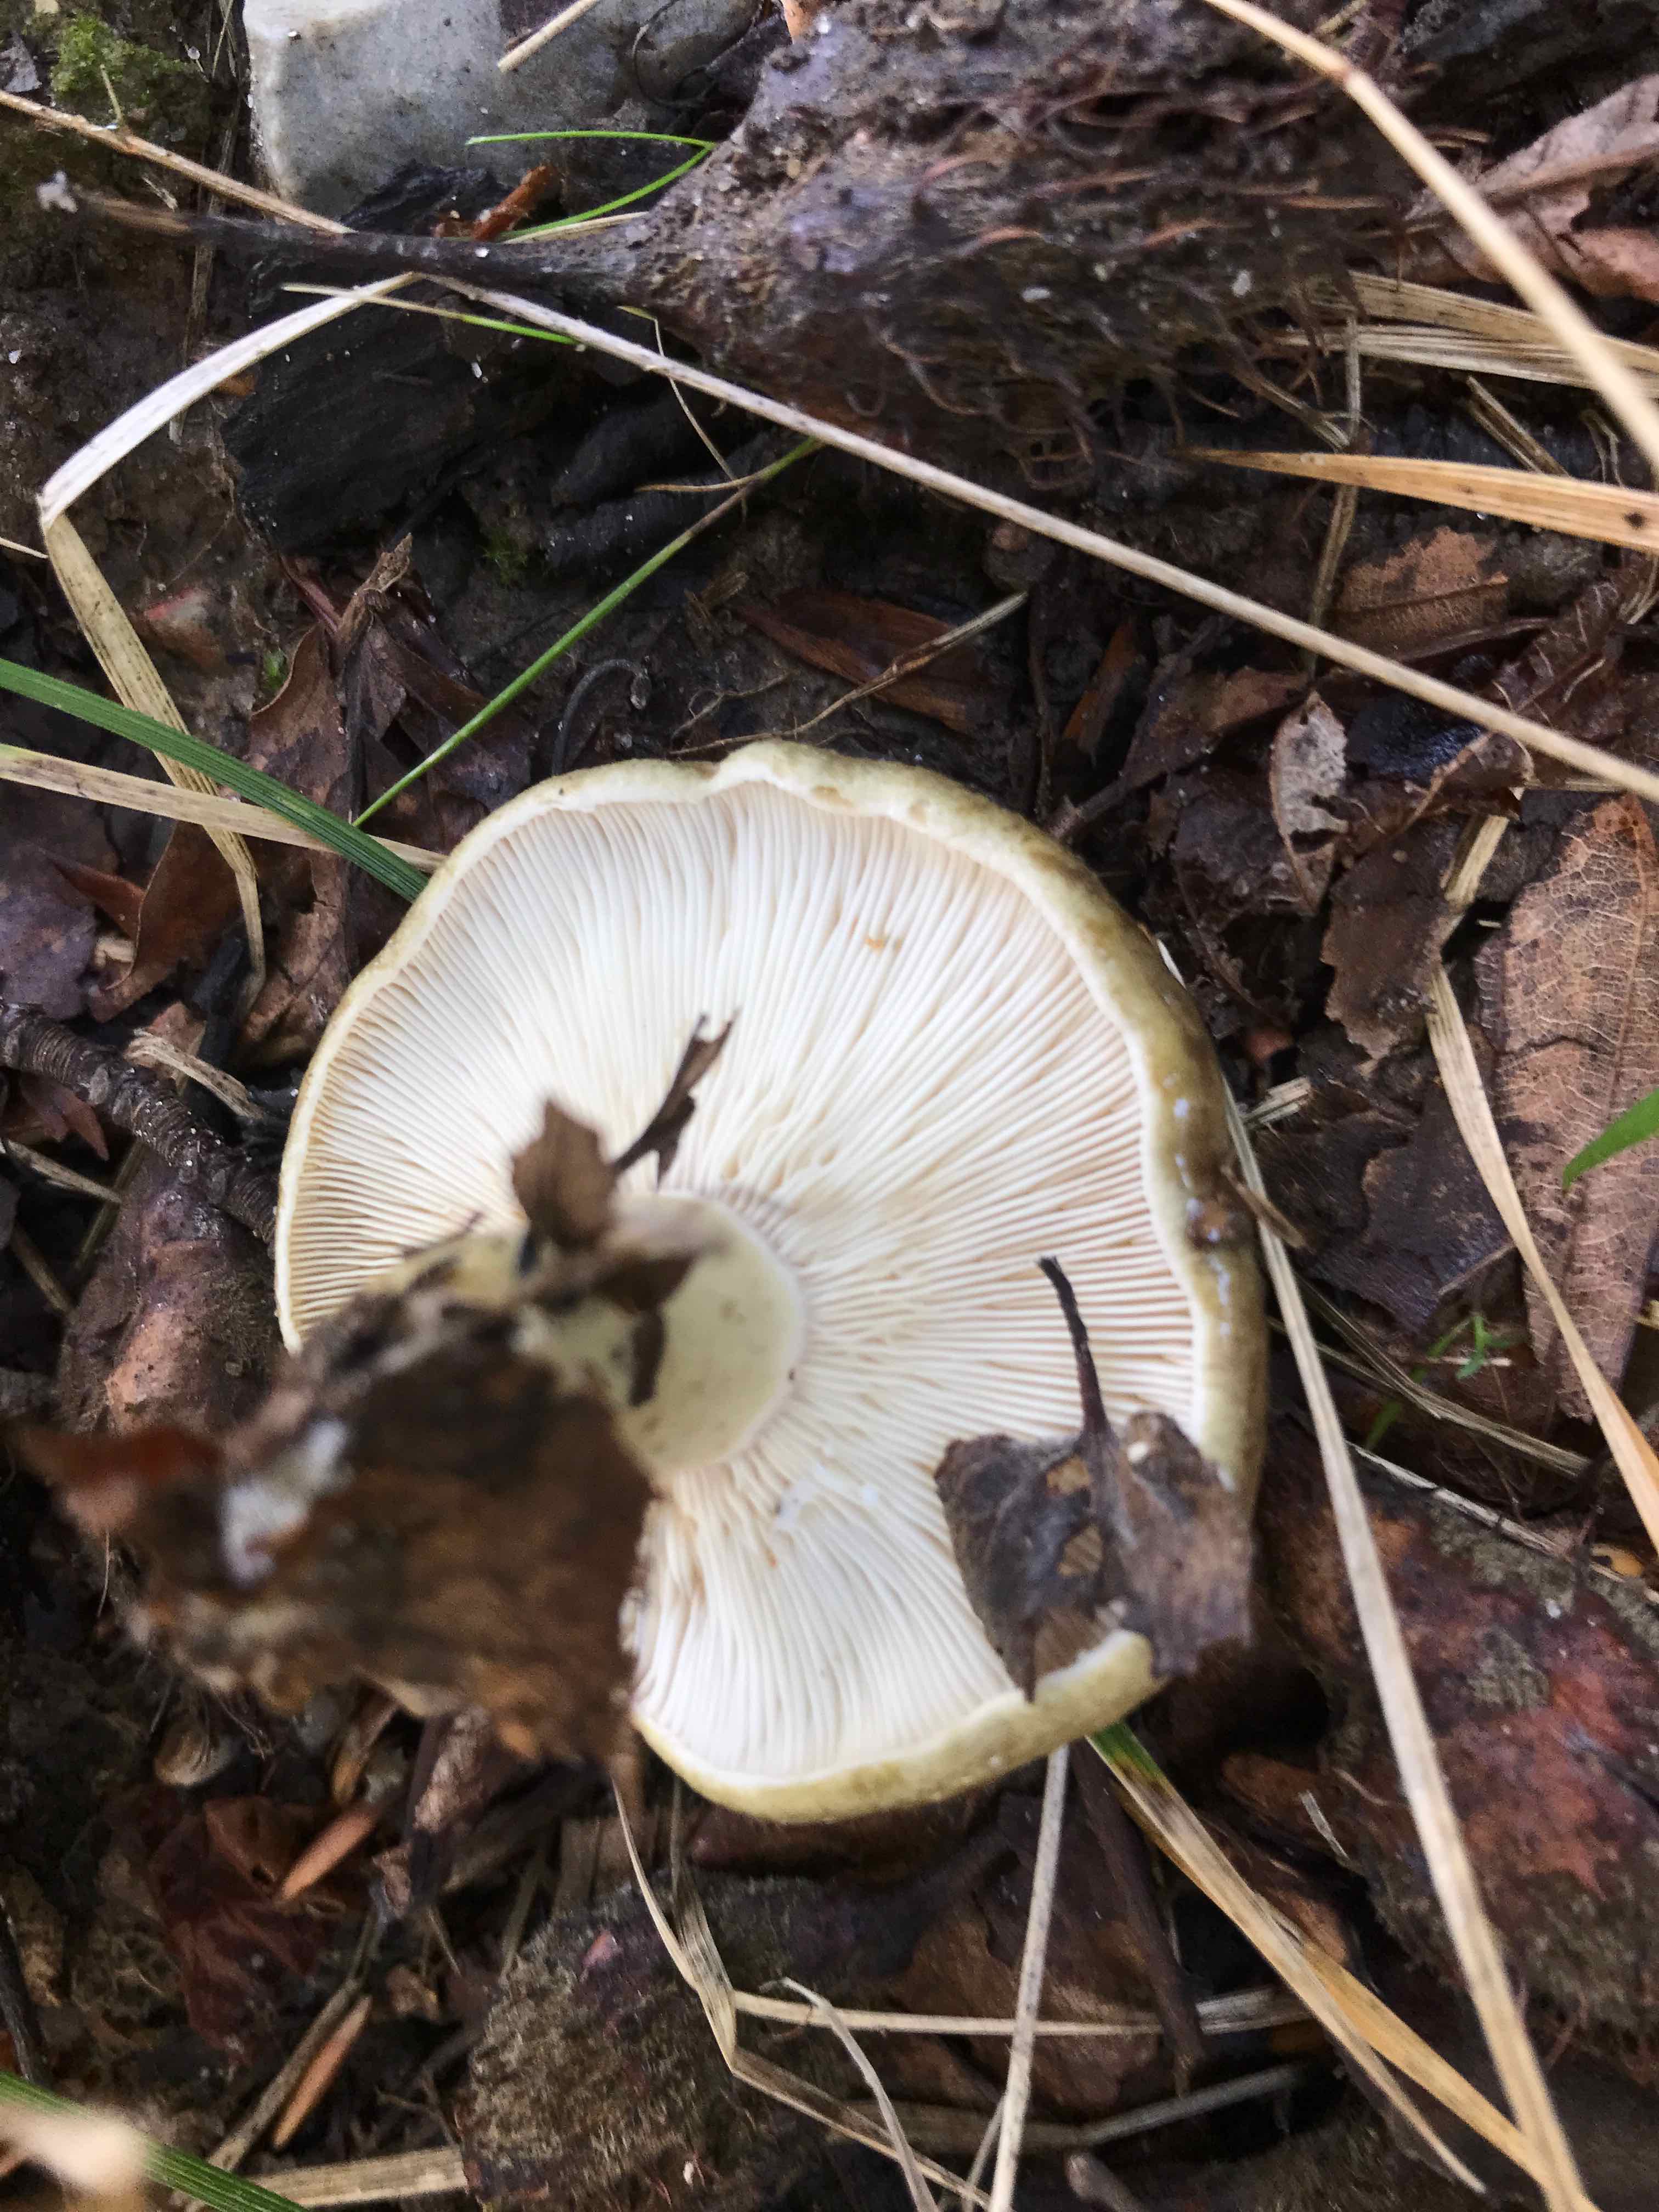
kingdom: Fungi
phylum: Basidiomycota
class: Agaricomycetes
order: Russulales
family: Russulaceae
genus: Lactarius
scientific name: Lactarius blennius
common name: dråbeplettet mælkehat
